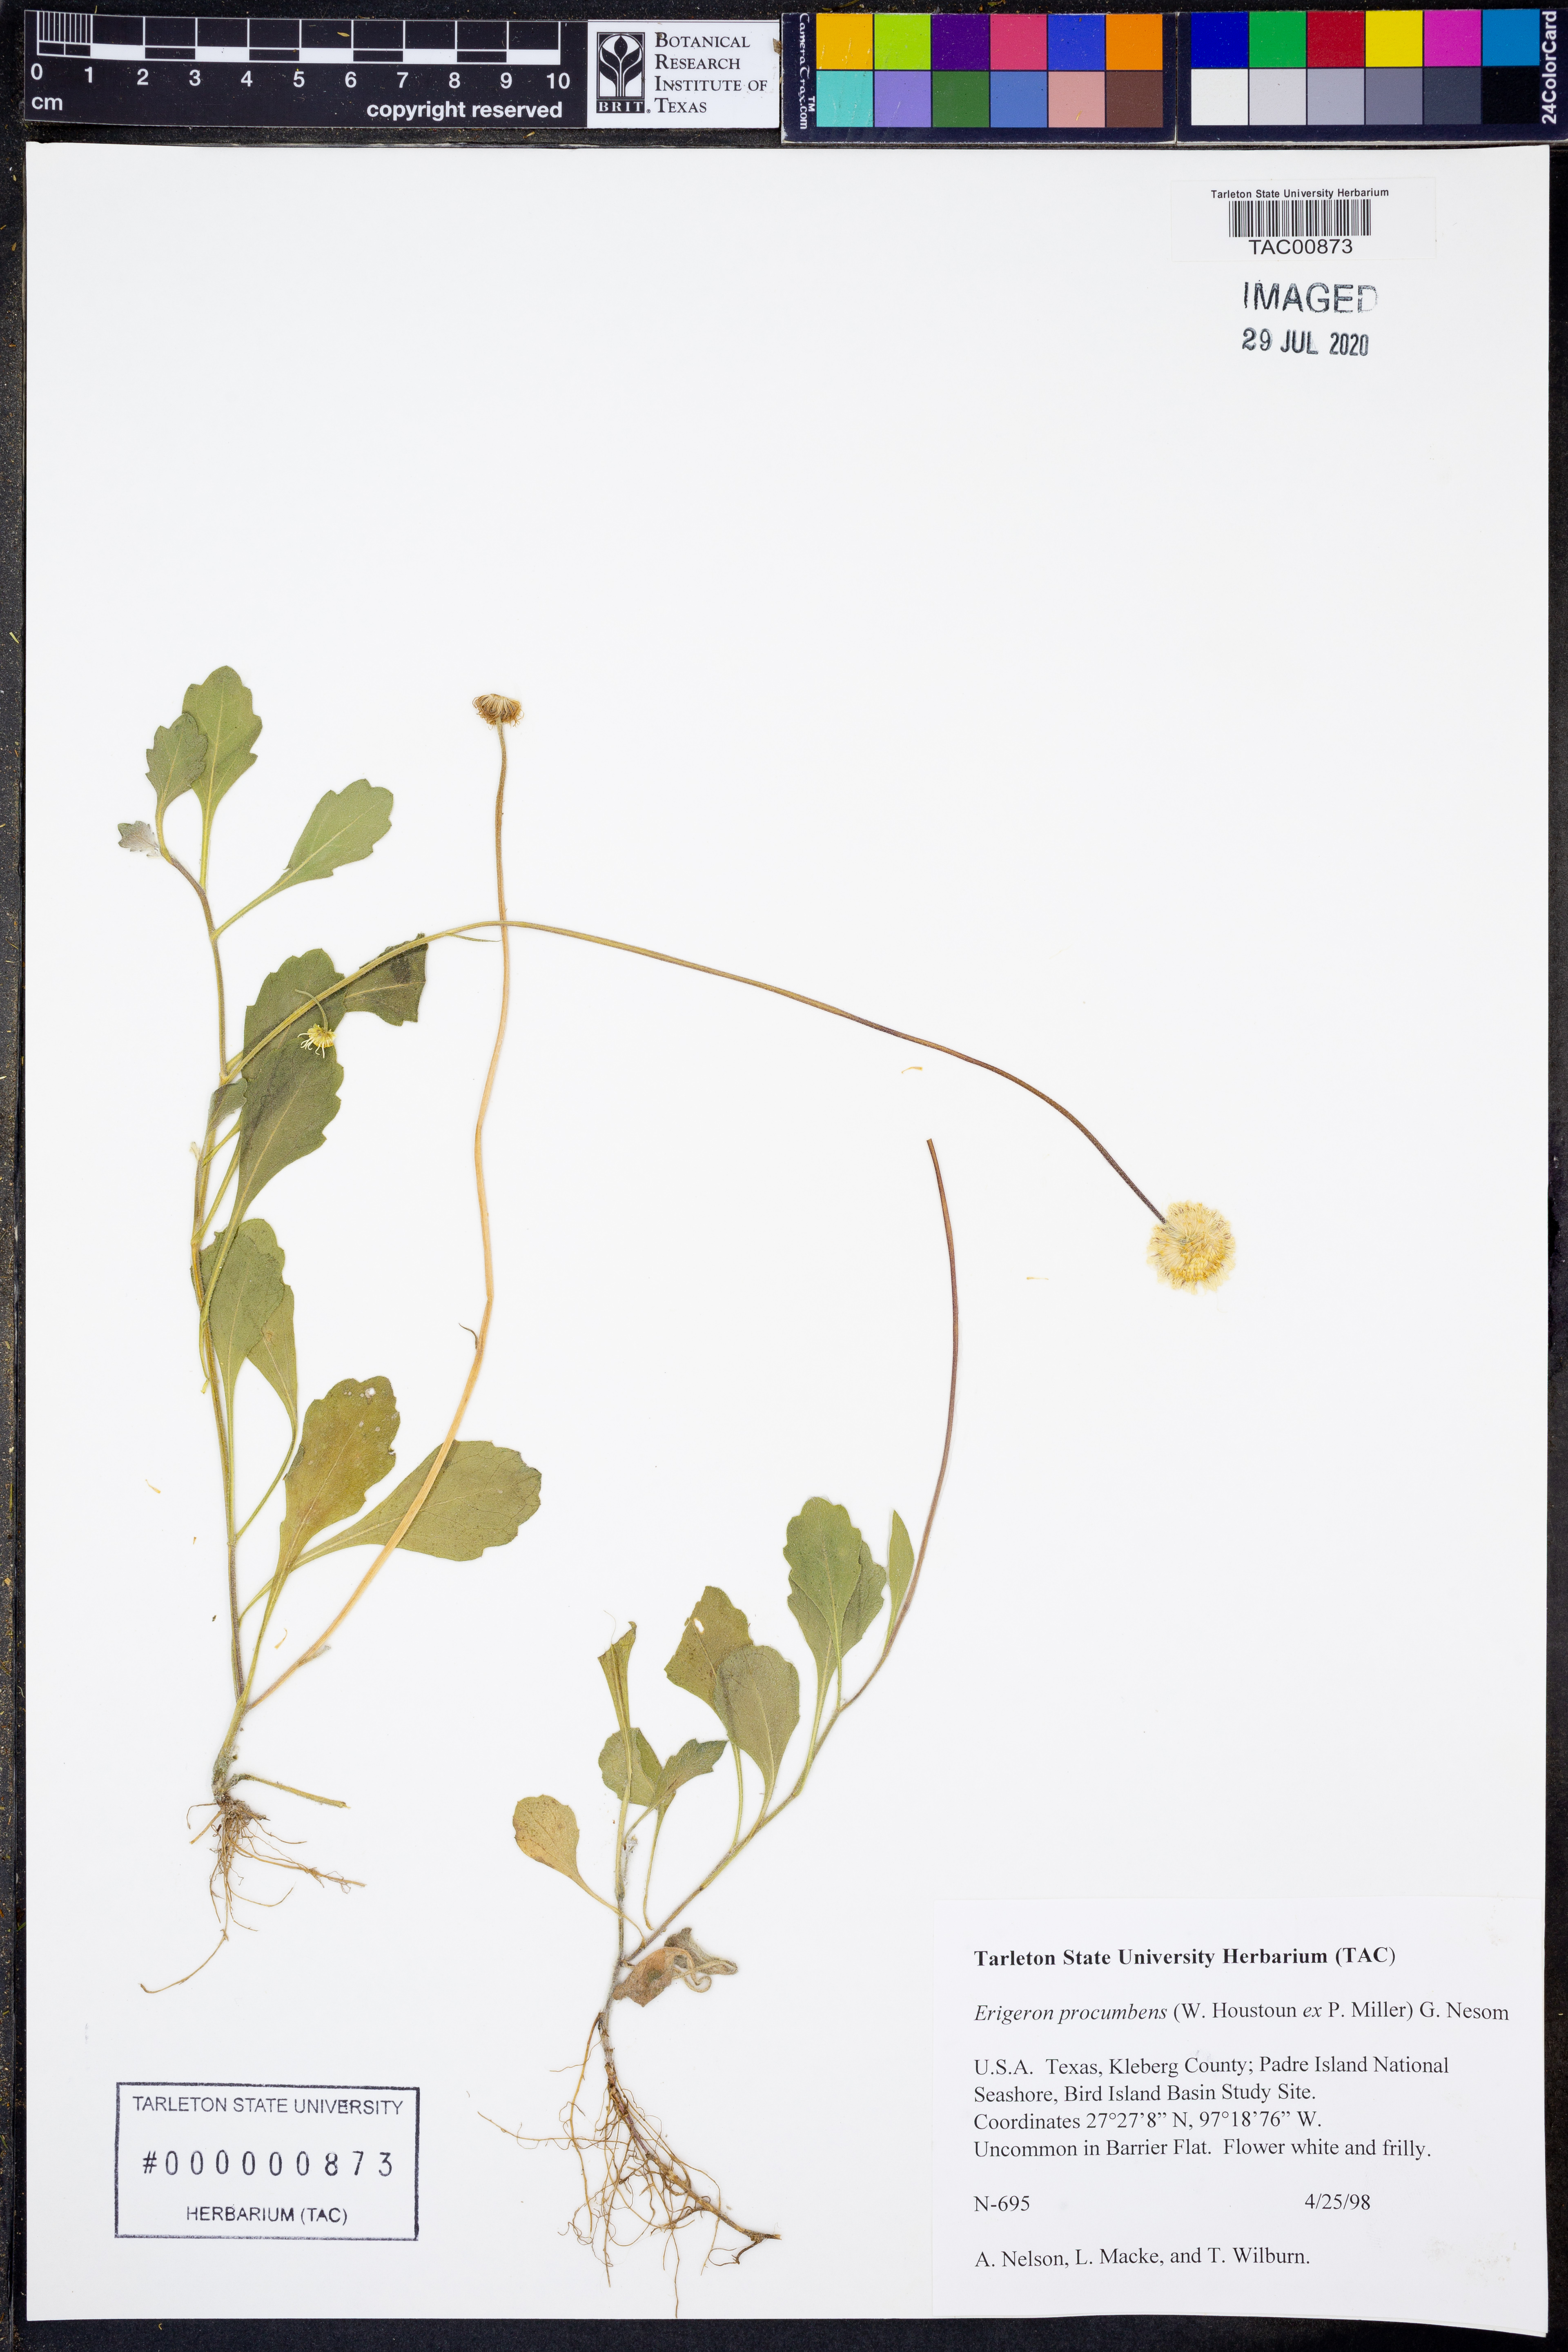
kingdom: Plantae
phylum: Tracheophyta
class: Magnoliopsida
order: Asterales
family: Asteraceae
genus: Erigeron
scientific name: Erigeron procumbens
